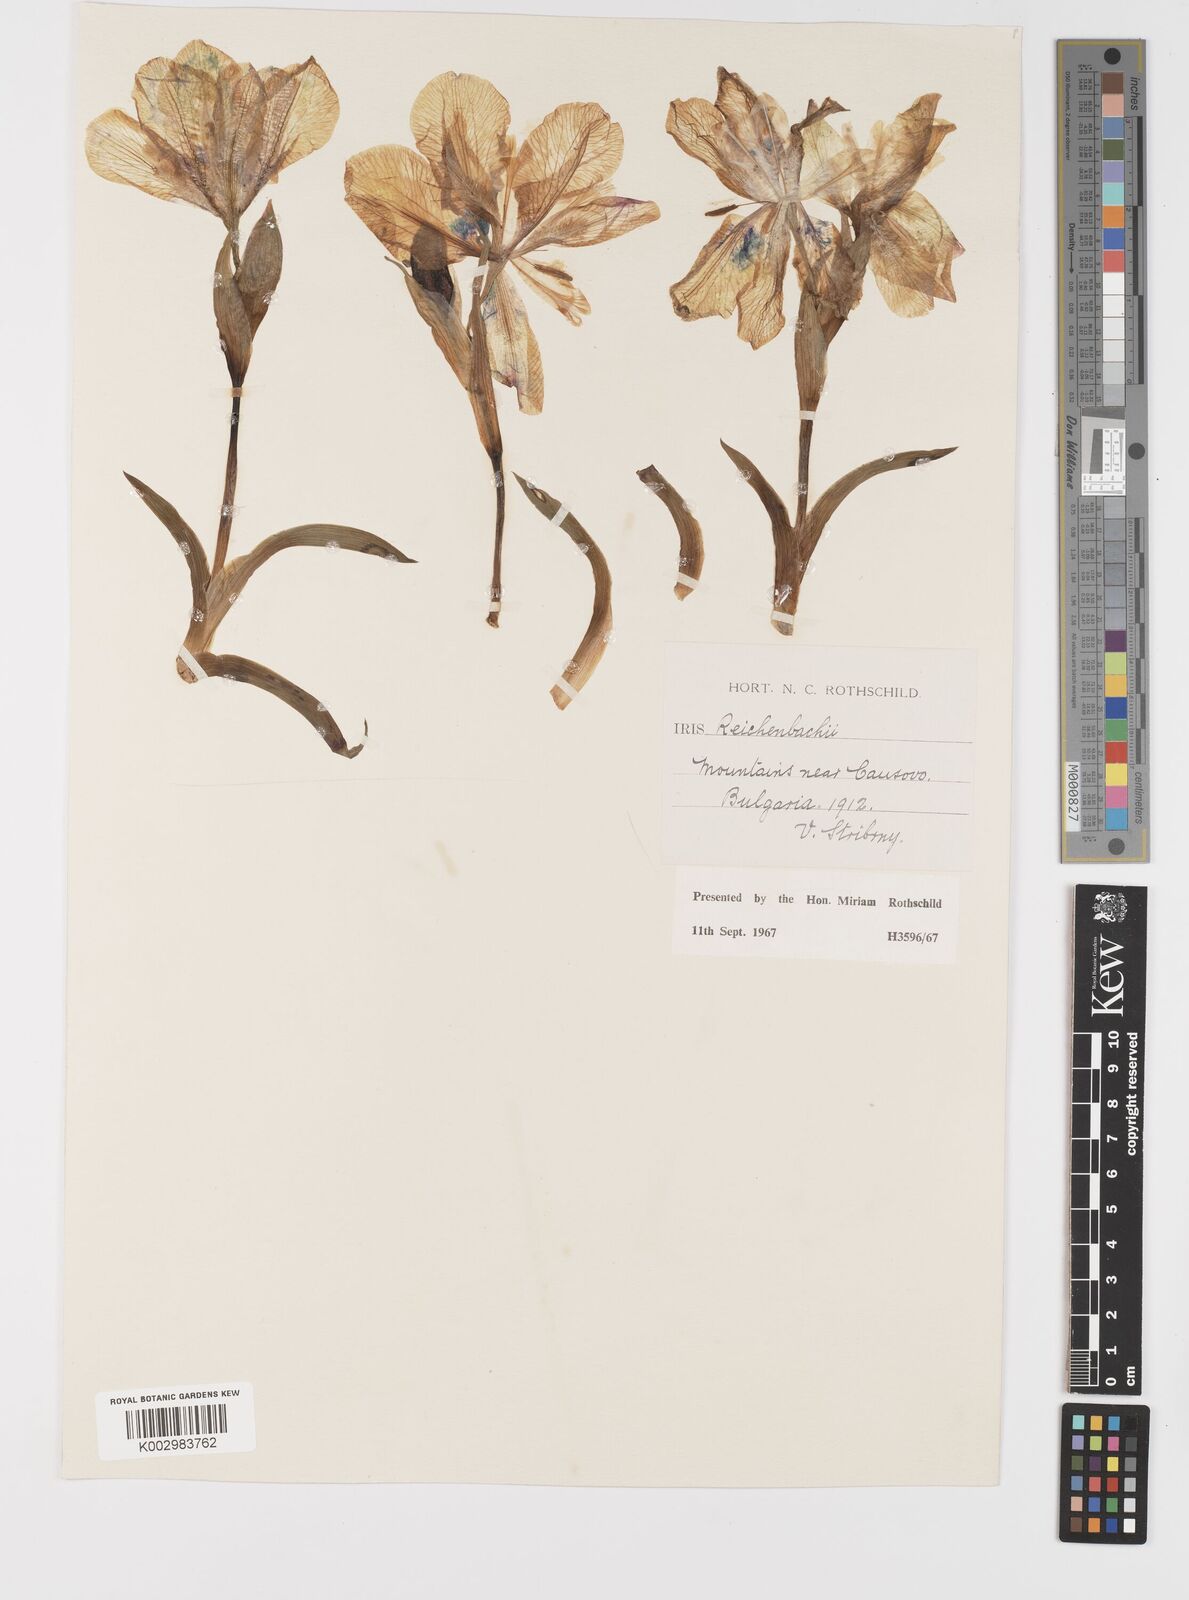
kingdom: Plantae
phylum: Tracheophyta
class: Liliopsida
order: Asparagales
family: Iridaceae
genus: Iris
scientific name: Iris reichenbachii
